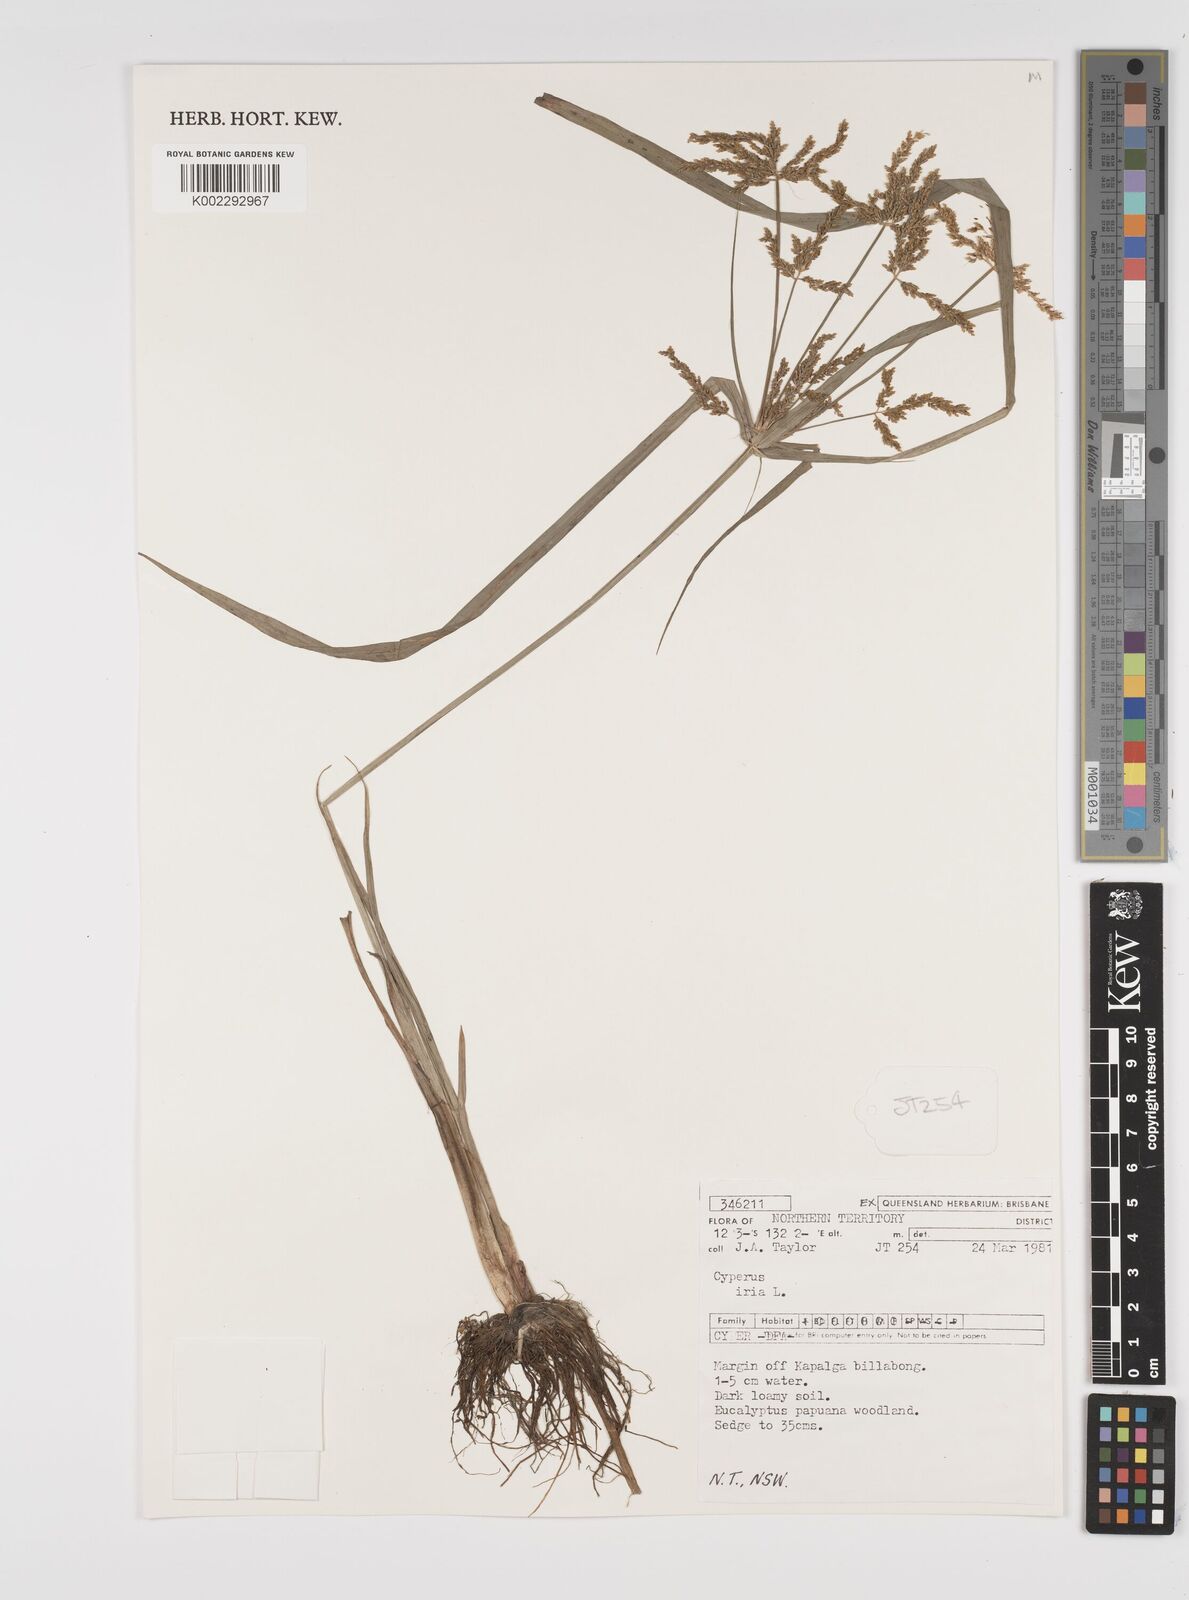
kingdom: Plantae
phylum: Tracheophyta
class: Liliopsida
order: Poales
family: Cyperaceae
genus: Cyperus
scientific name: Cyperus iria
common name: Ricefield flatsedge
